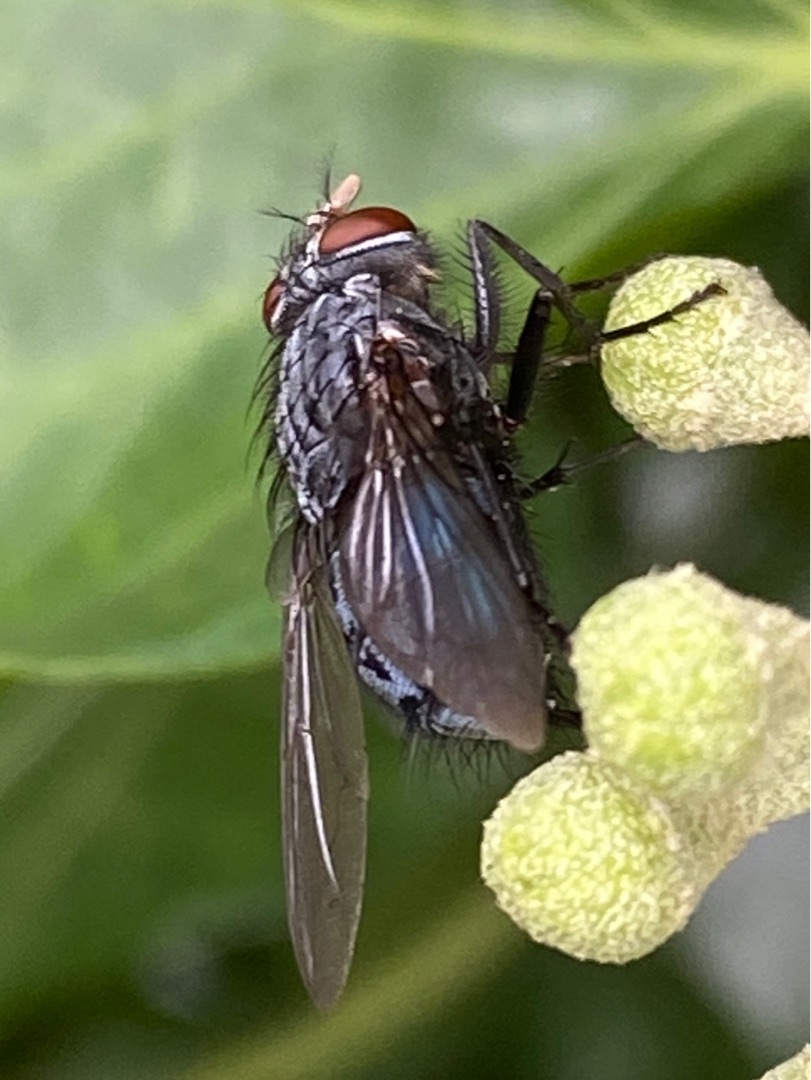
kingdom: Animalia
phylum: Arthropoda
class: Insecta
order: Diptera
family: Calliphoridae
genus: Calliphora
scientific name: Calliphora vicina
